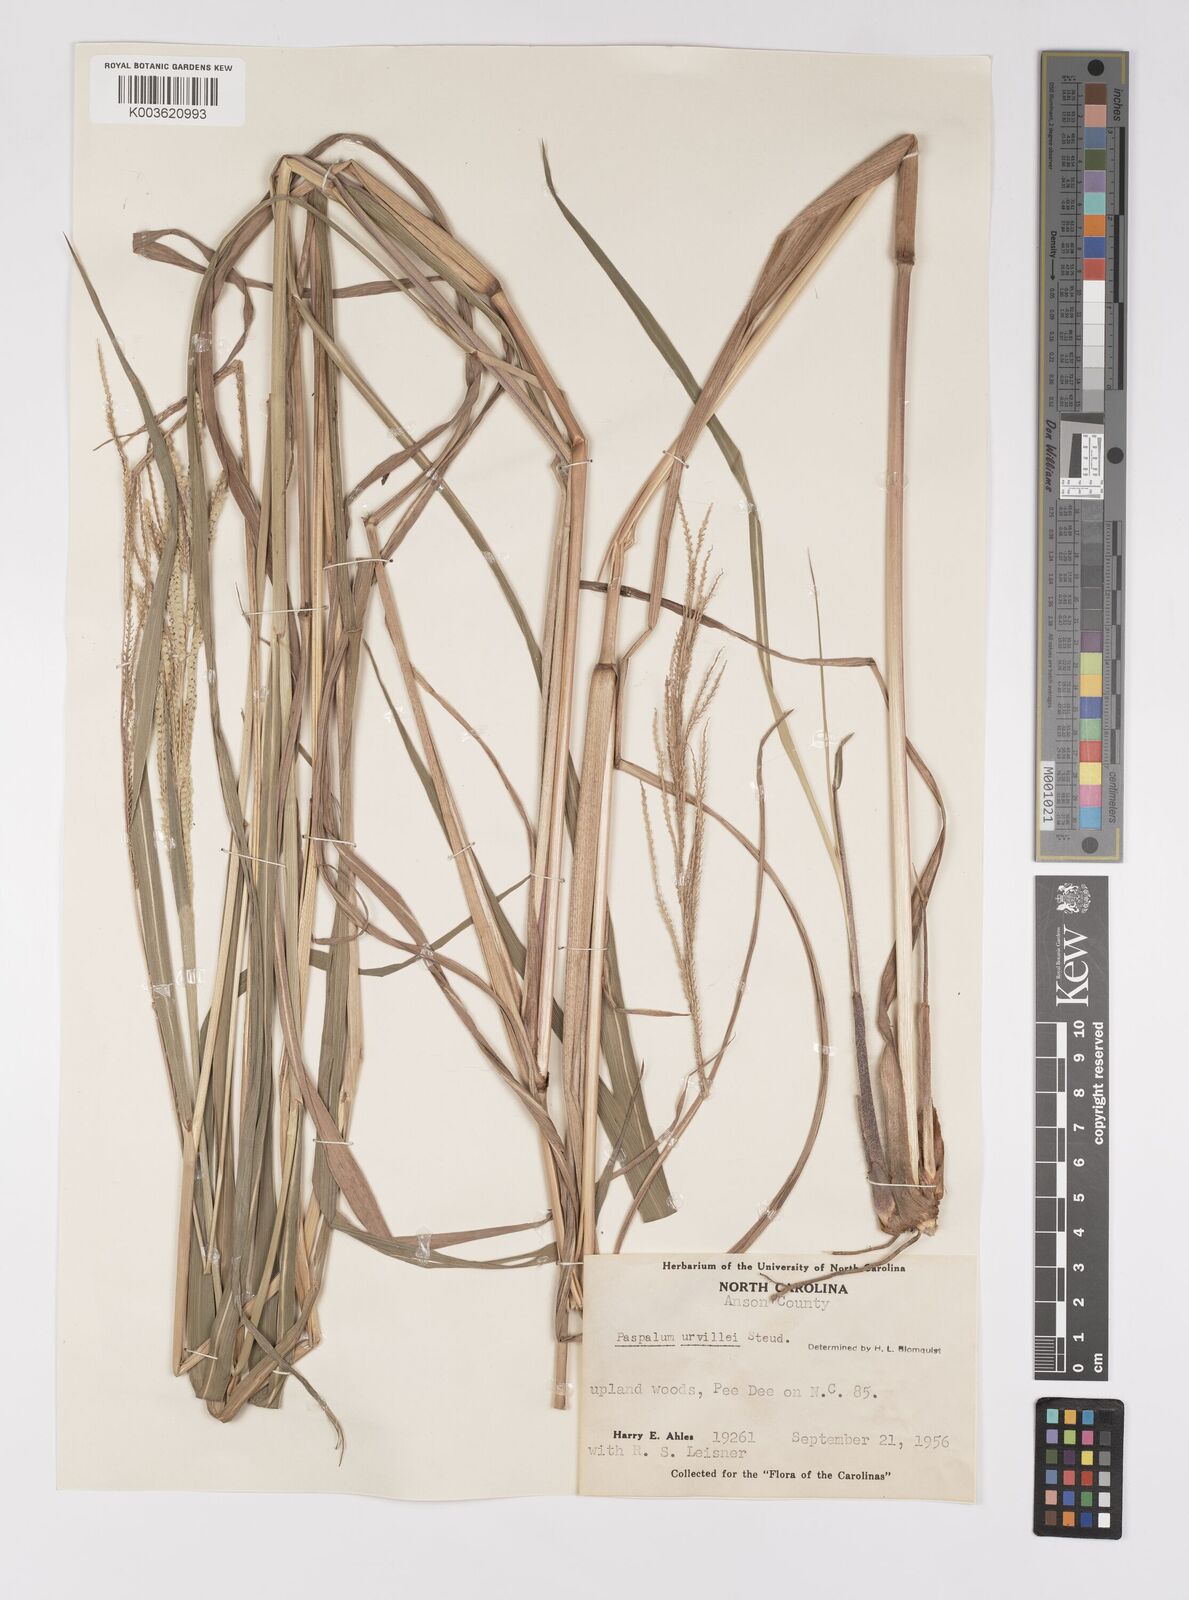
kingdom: Plantae
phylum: Tracheophyta
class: Liliopsida
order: Poales
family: Poaceae
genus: Paspalum
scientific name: Paspalum urvillei
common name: Vasey's grass
